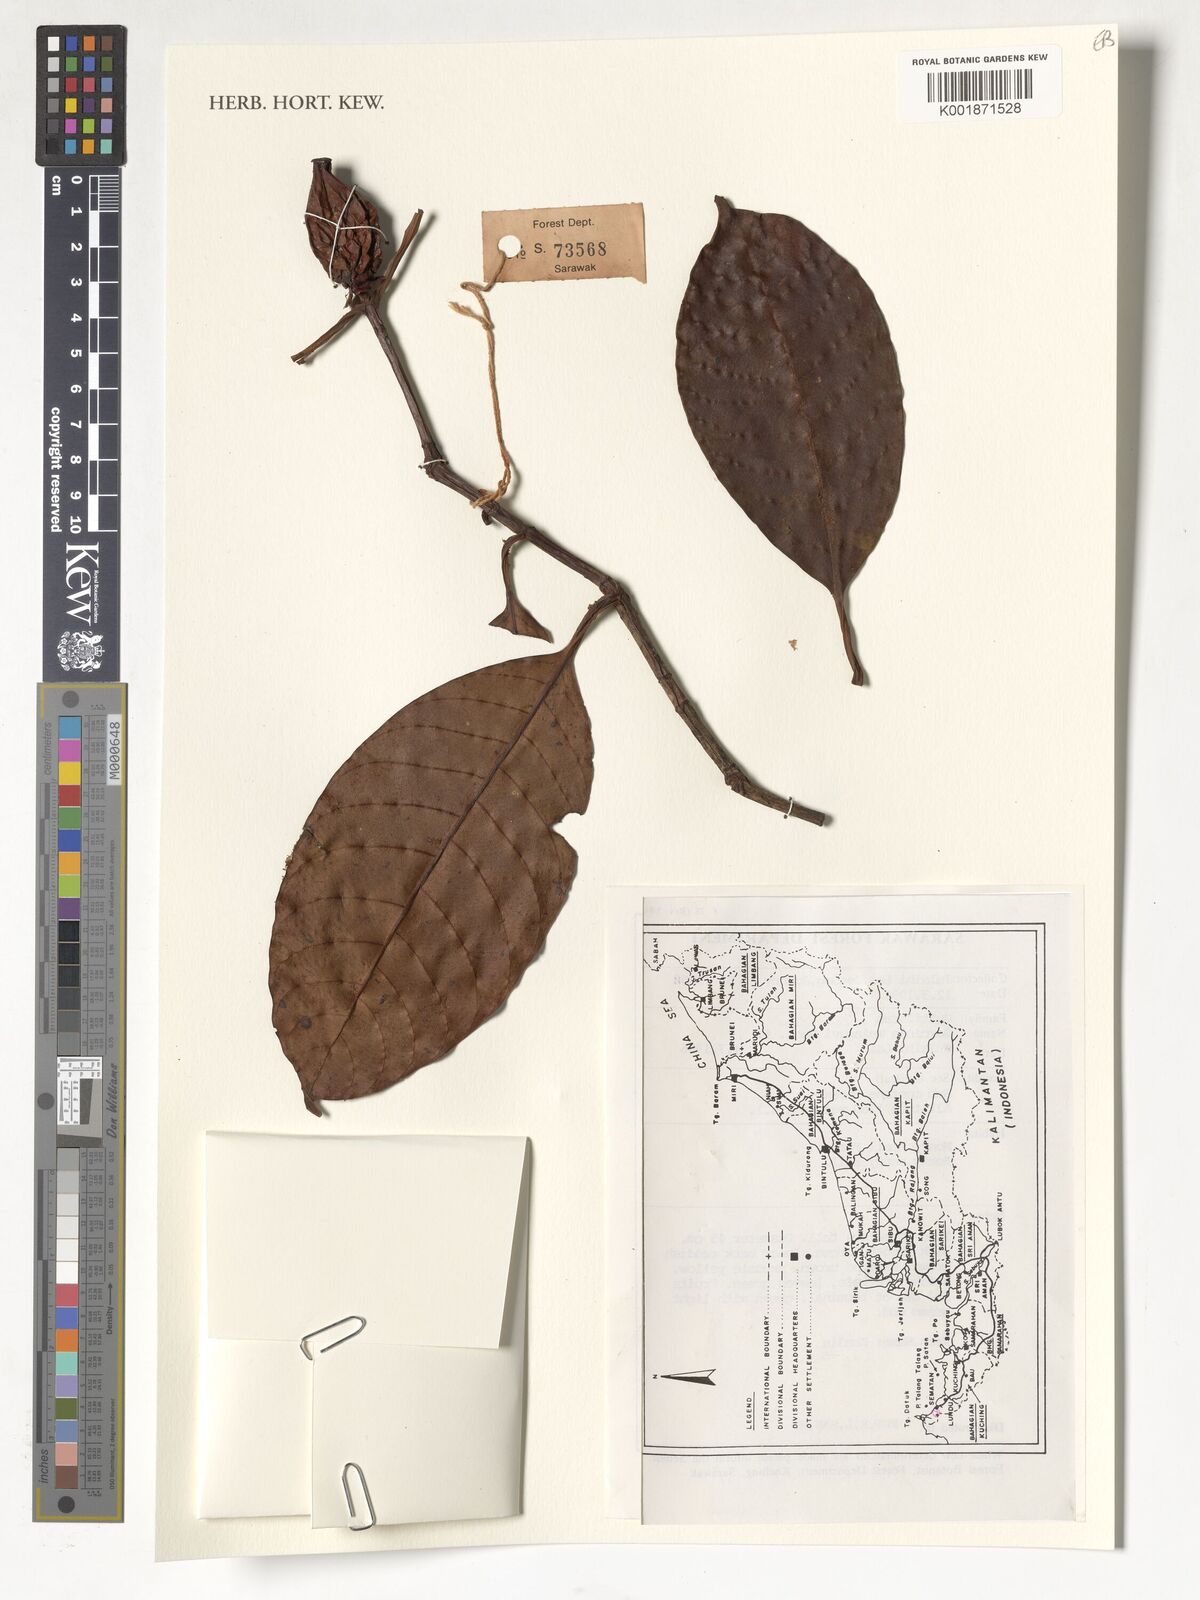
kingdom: Plantae
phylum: Tracheophyta
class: Magnoliopsida
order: Malpighiales
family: Clusiaceae
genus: Garcinia
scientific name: Garcinia maingayi
